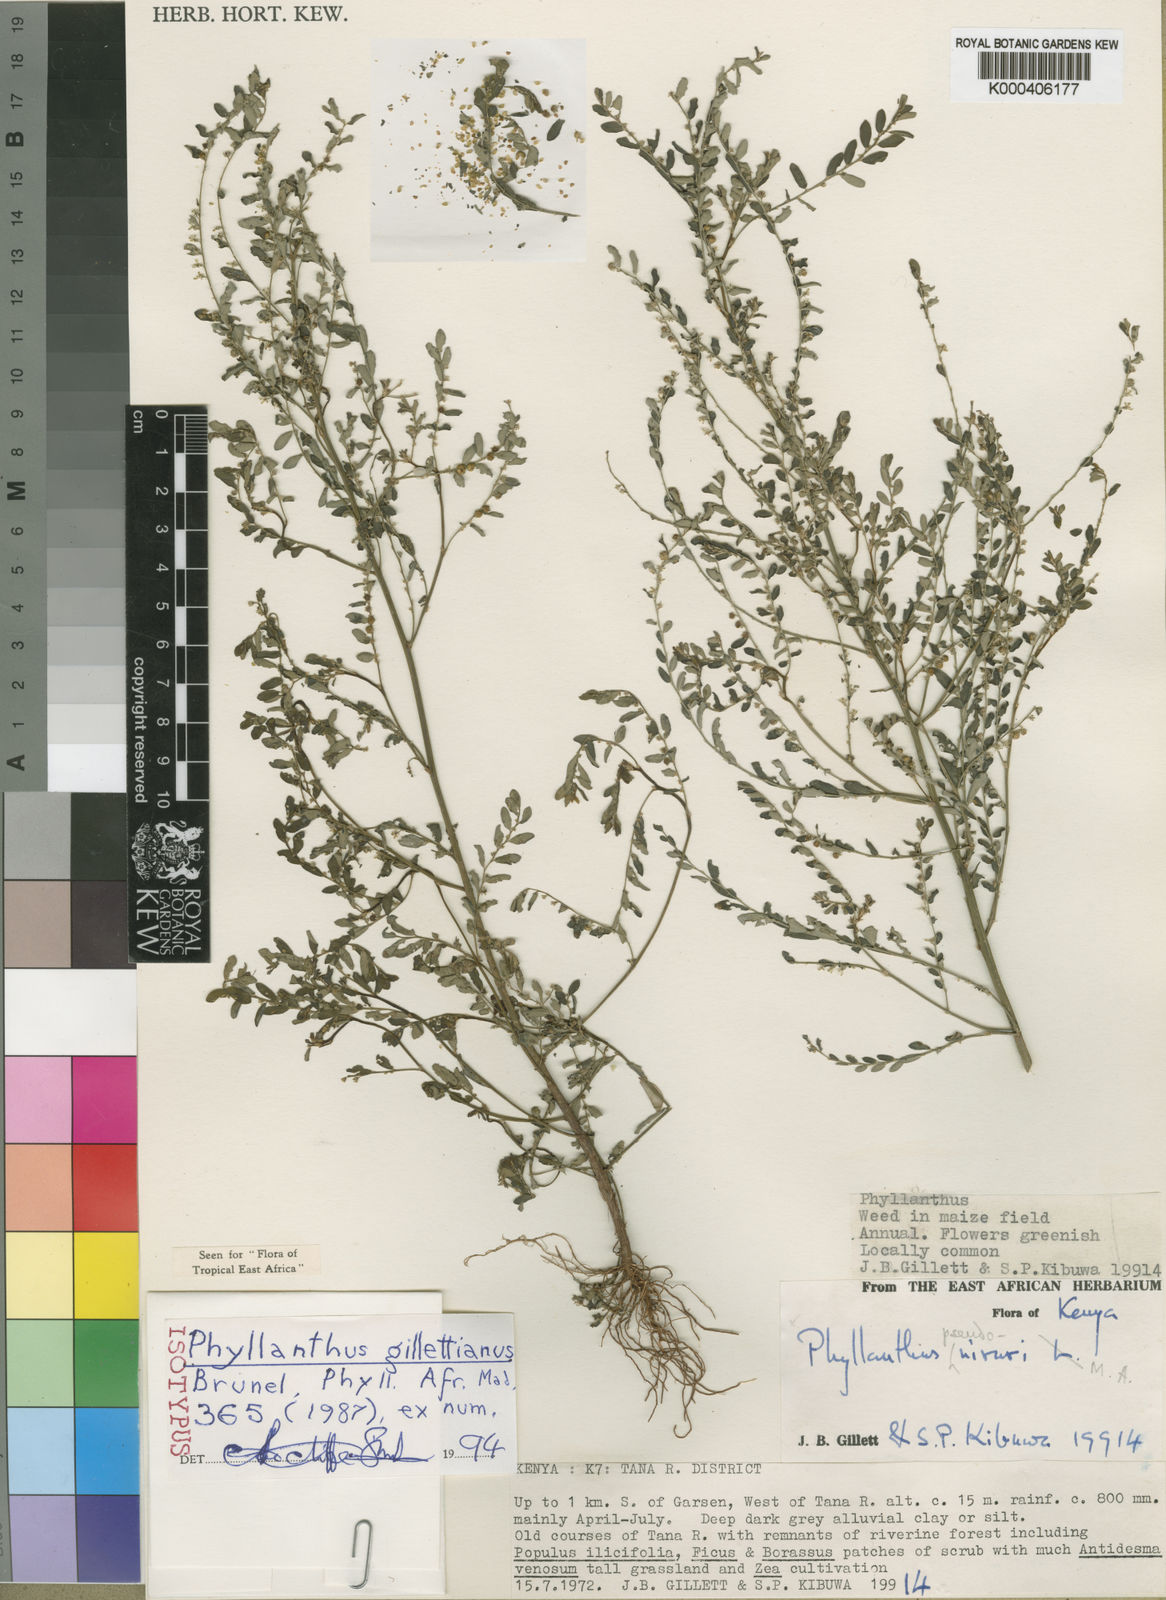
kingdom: Plantae
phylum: Tracheophyta
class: Magnoliopsida
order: Malpighiales
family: Phyllanthaceae
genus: Phyllanthus
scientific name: Phyllanthus
